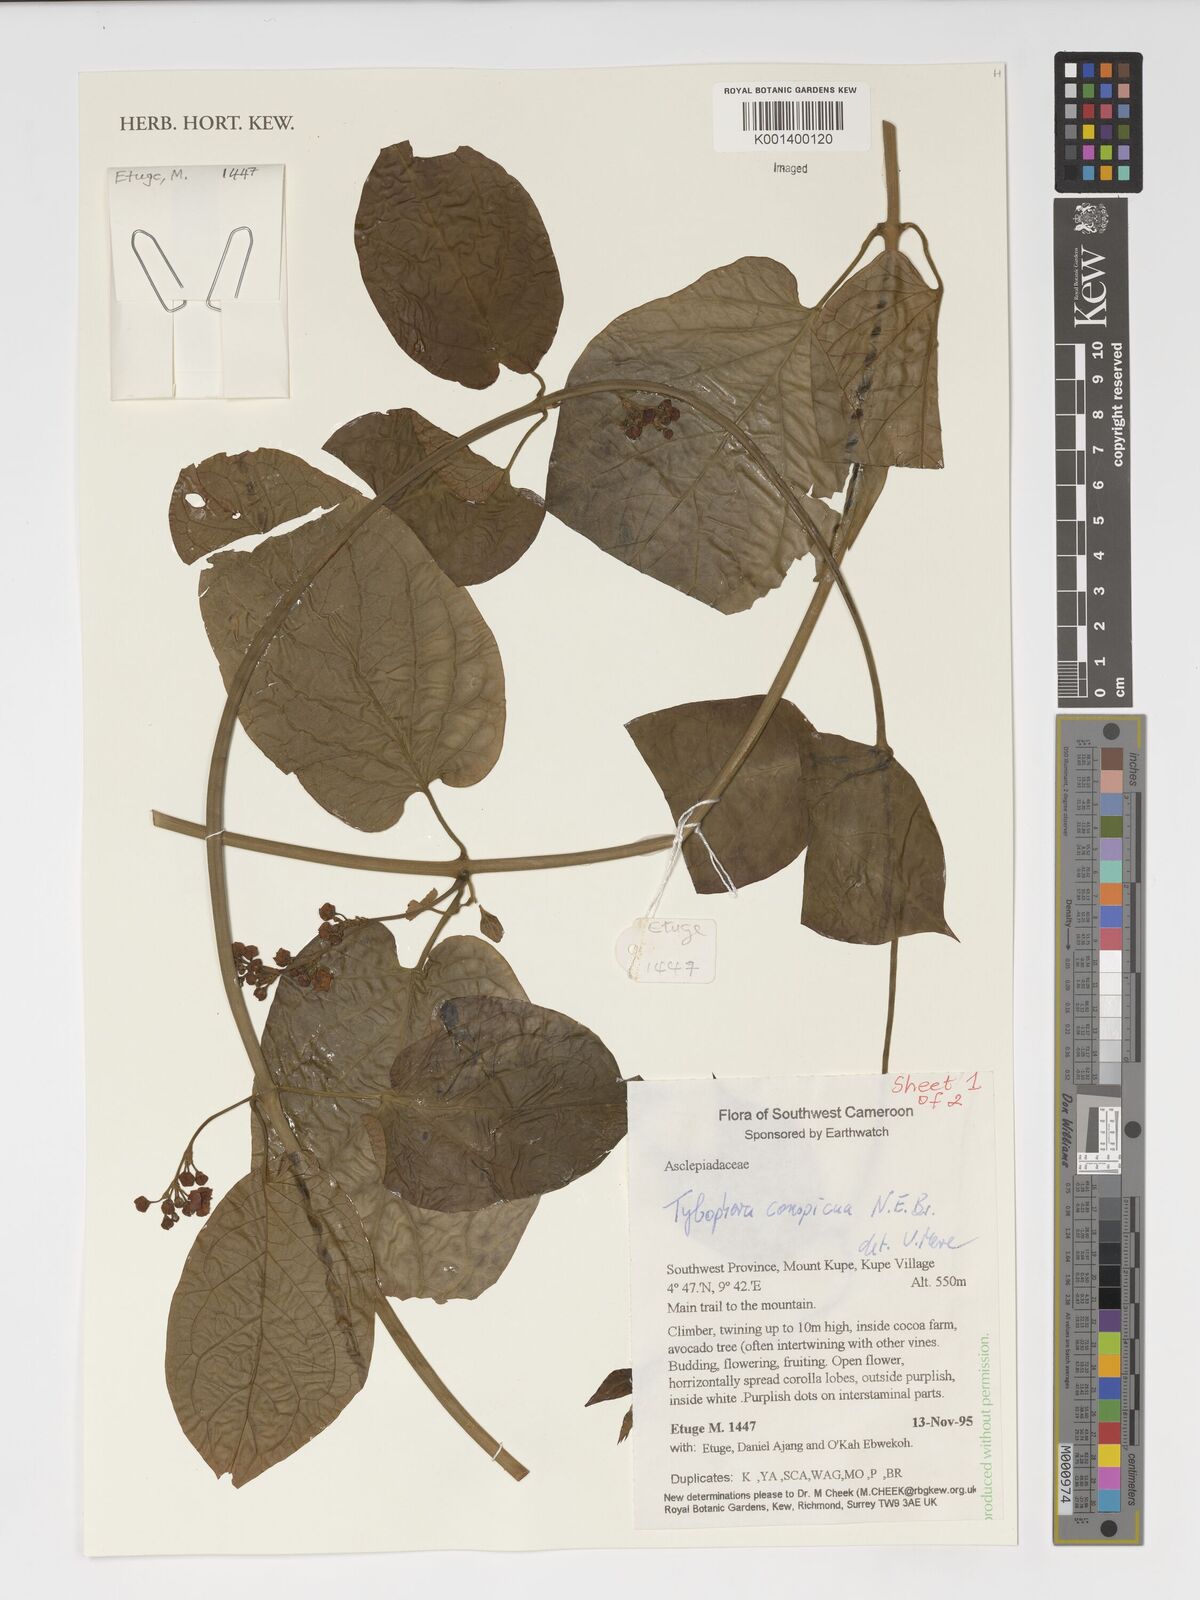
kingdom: Plantae
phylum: Tracheophyta
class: Magnoliopsida
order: Gentianales
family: Apocynaceae
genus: Vincetoxicum
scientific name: Vincetoxicum conspicuum
